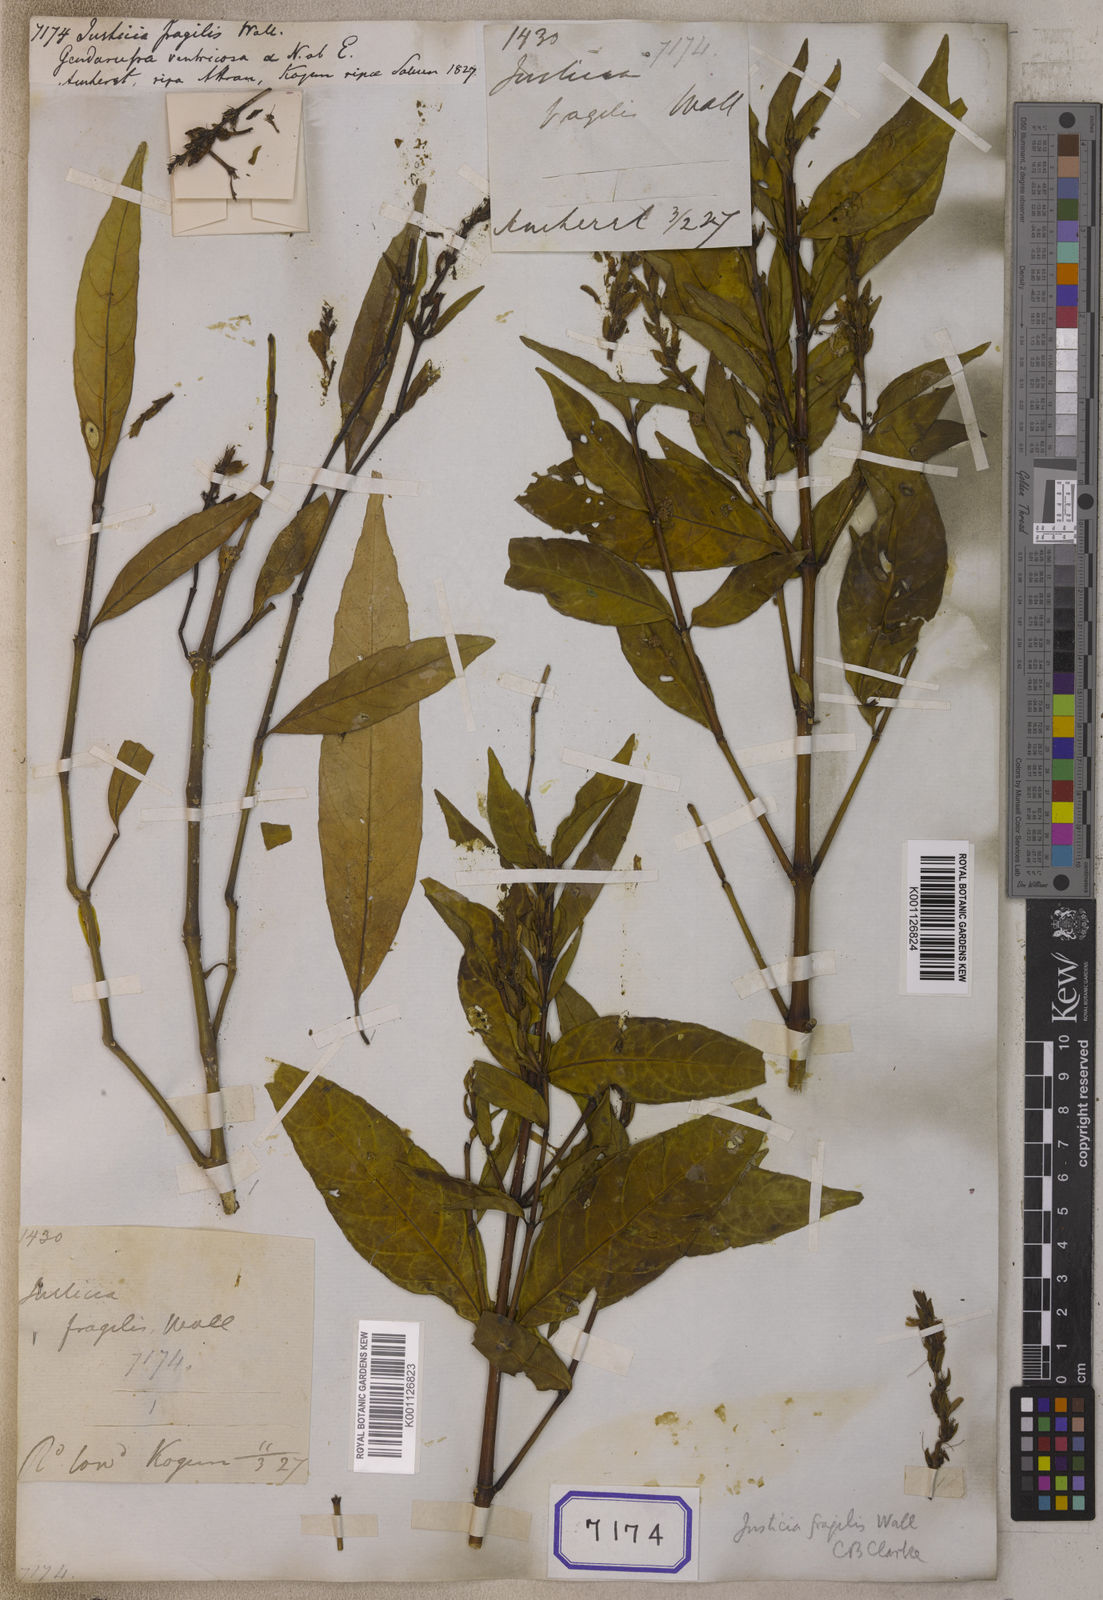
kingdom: Plantae
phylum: Tracheophyta
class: Magnoliopsida
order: Lamiales
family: Acanthaceae
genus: Justicia
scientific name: Justicia
